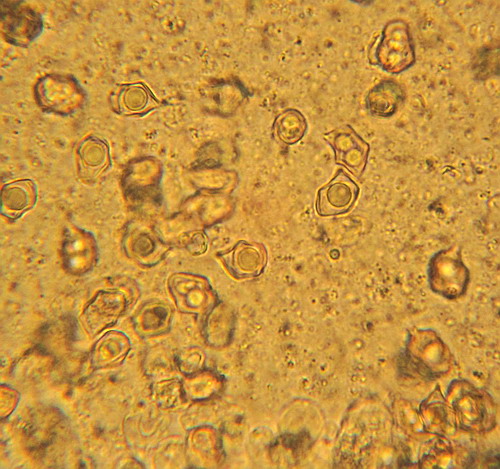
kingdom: Fungi
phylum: Basidiomycota
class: Agaricomycetes
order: Agaricales
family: Entolomataceae
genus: Entoloma
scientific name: Entoloma exile
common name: rødplettet rødblad
